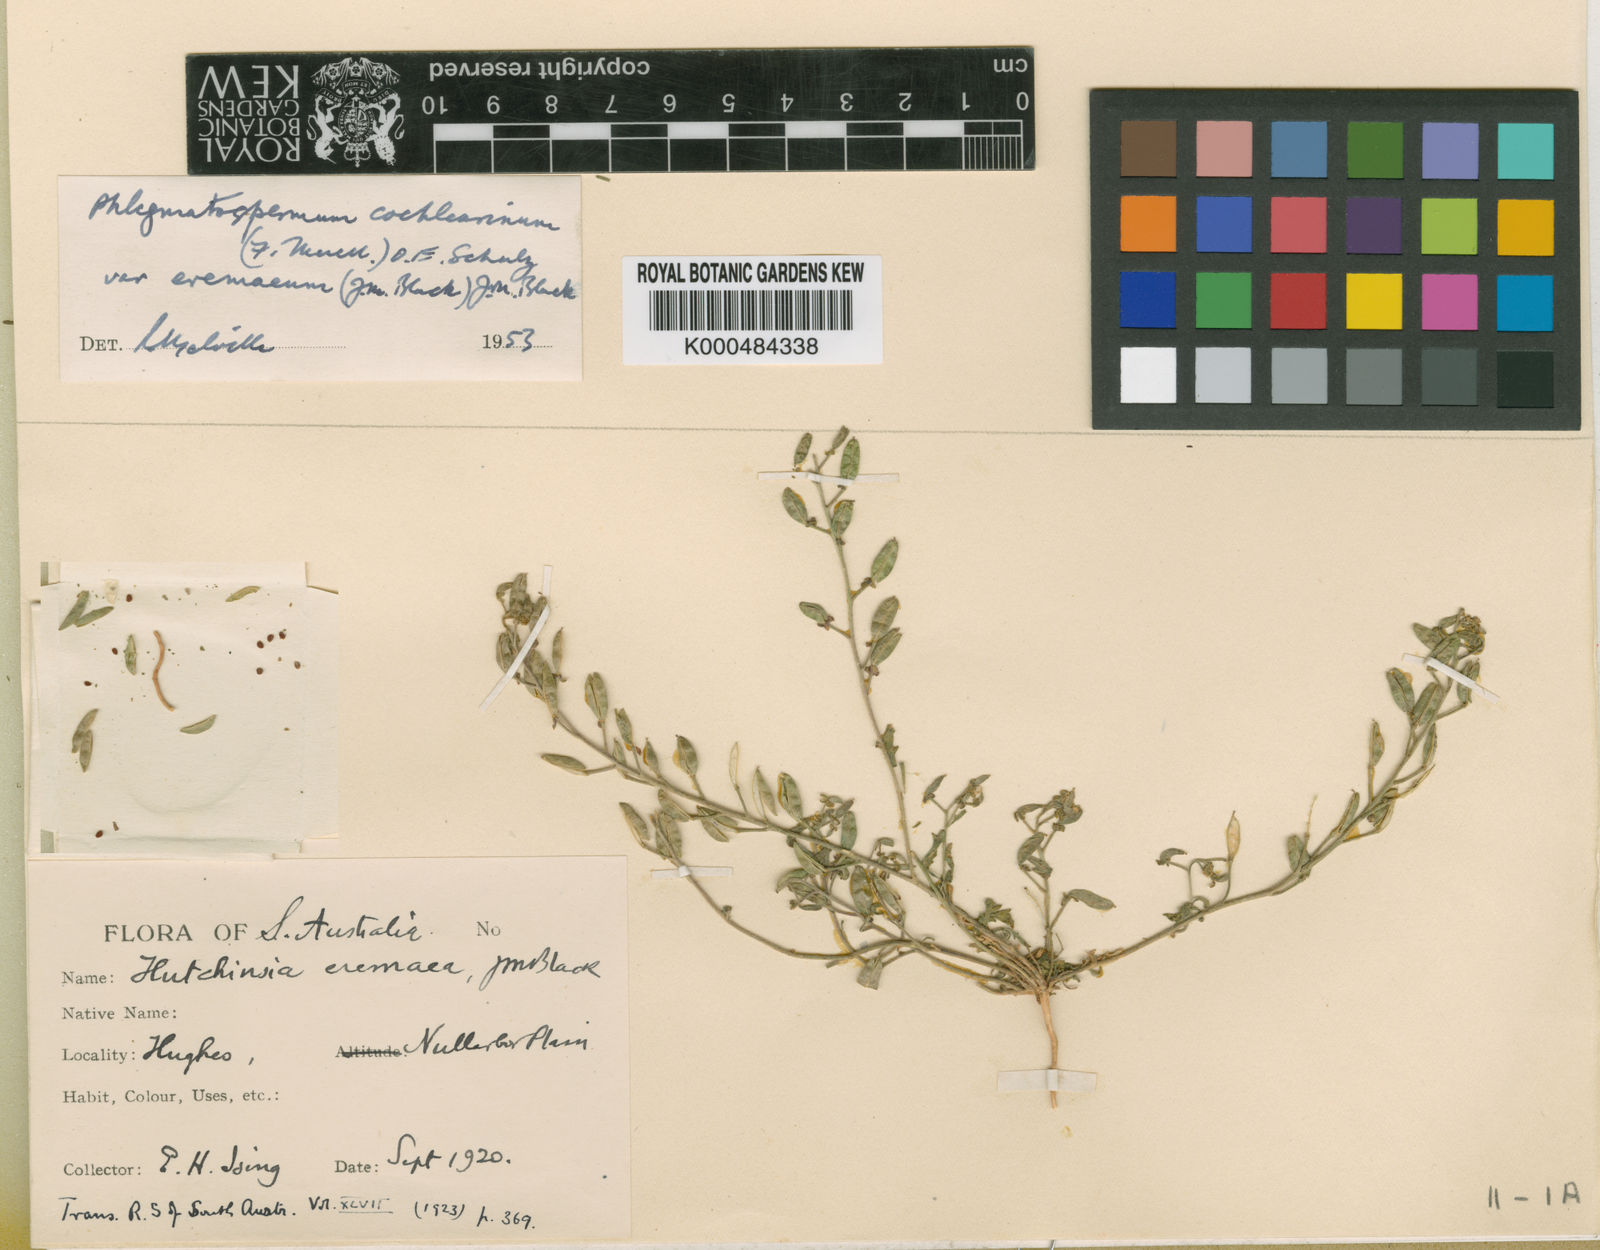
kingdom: Plantae
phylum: Tracheophyta
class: Magnoliopsida
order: Brassicales
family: Brassicaceae
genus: Phlegmatospermum
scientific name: Phlegmatospermum cochlearinum
